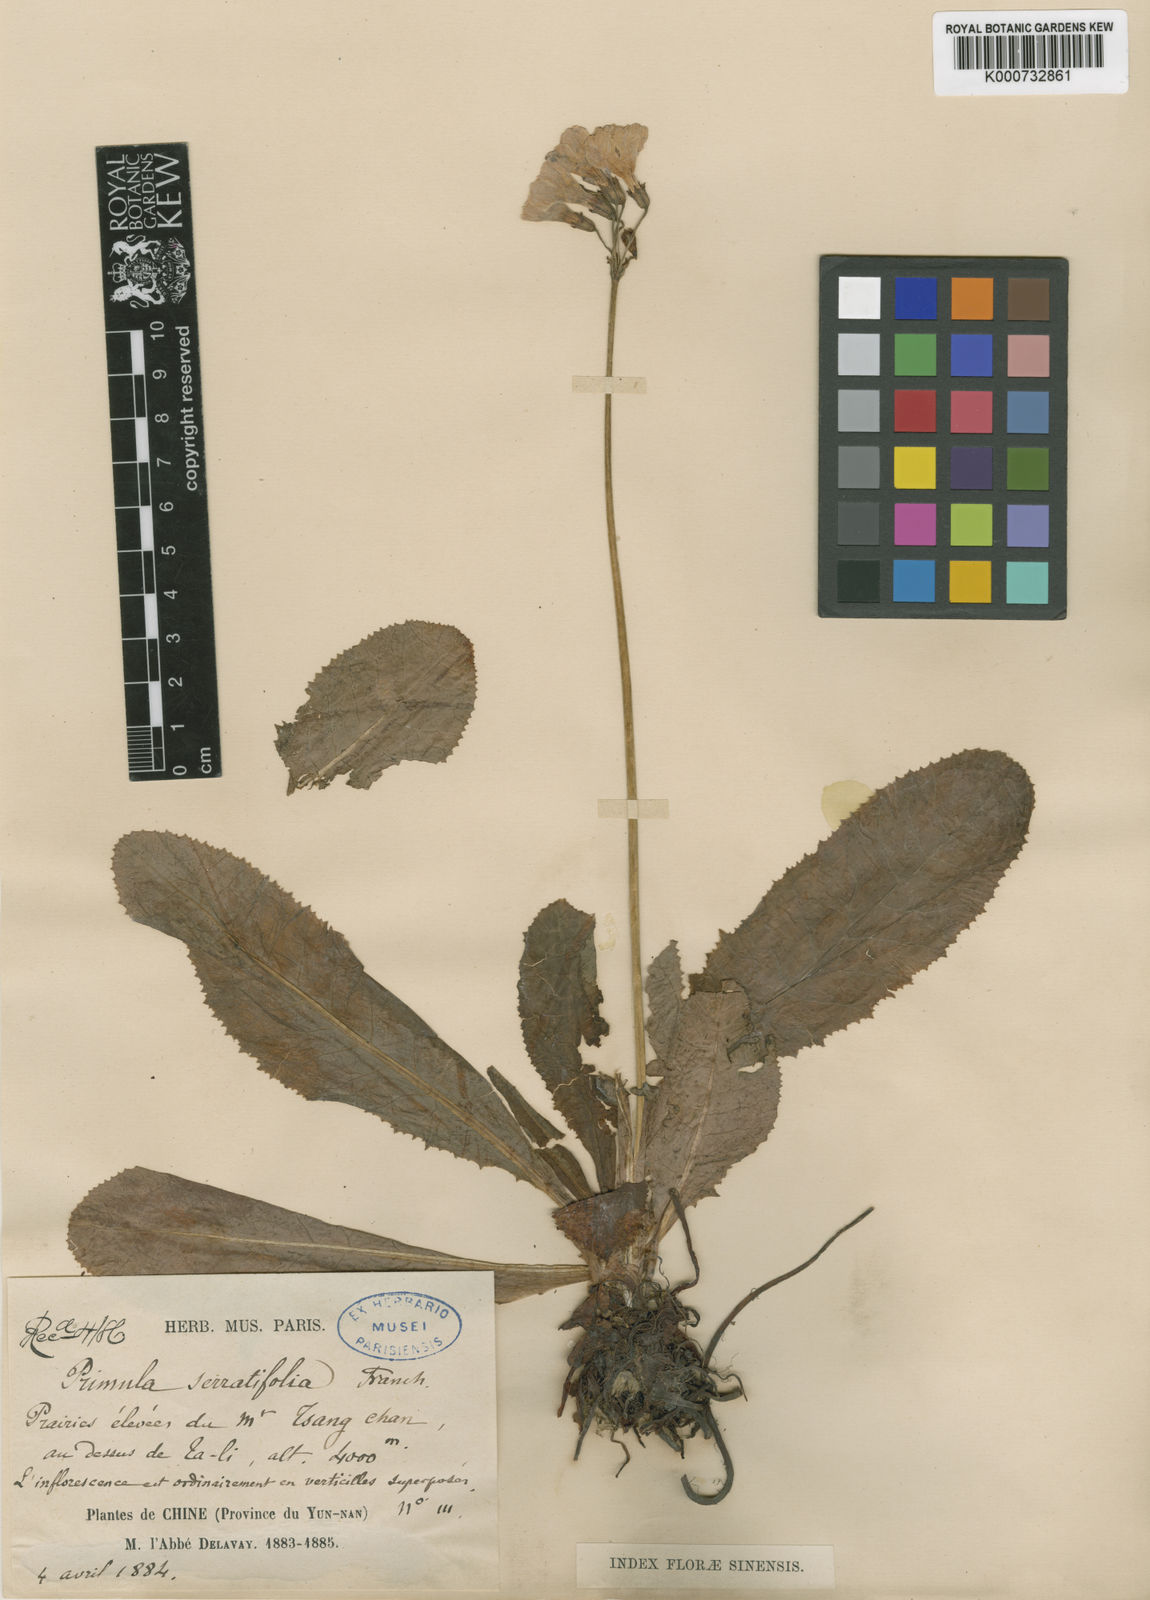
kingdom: Plantae
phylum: Tracheophyta
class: Magnoliopsida
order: Ericales
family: Primulaceae
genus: Primula
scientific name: Primula serratifolia
